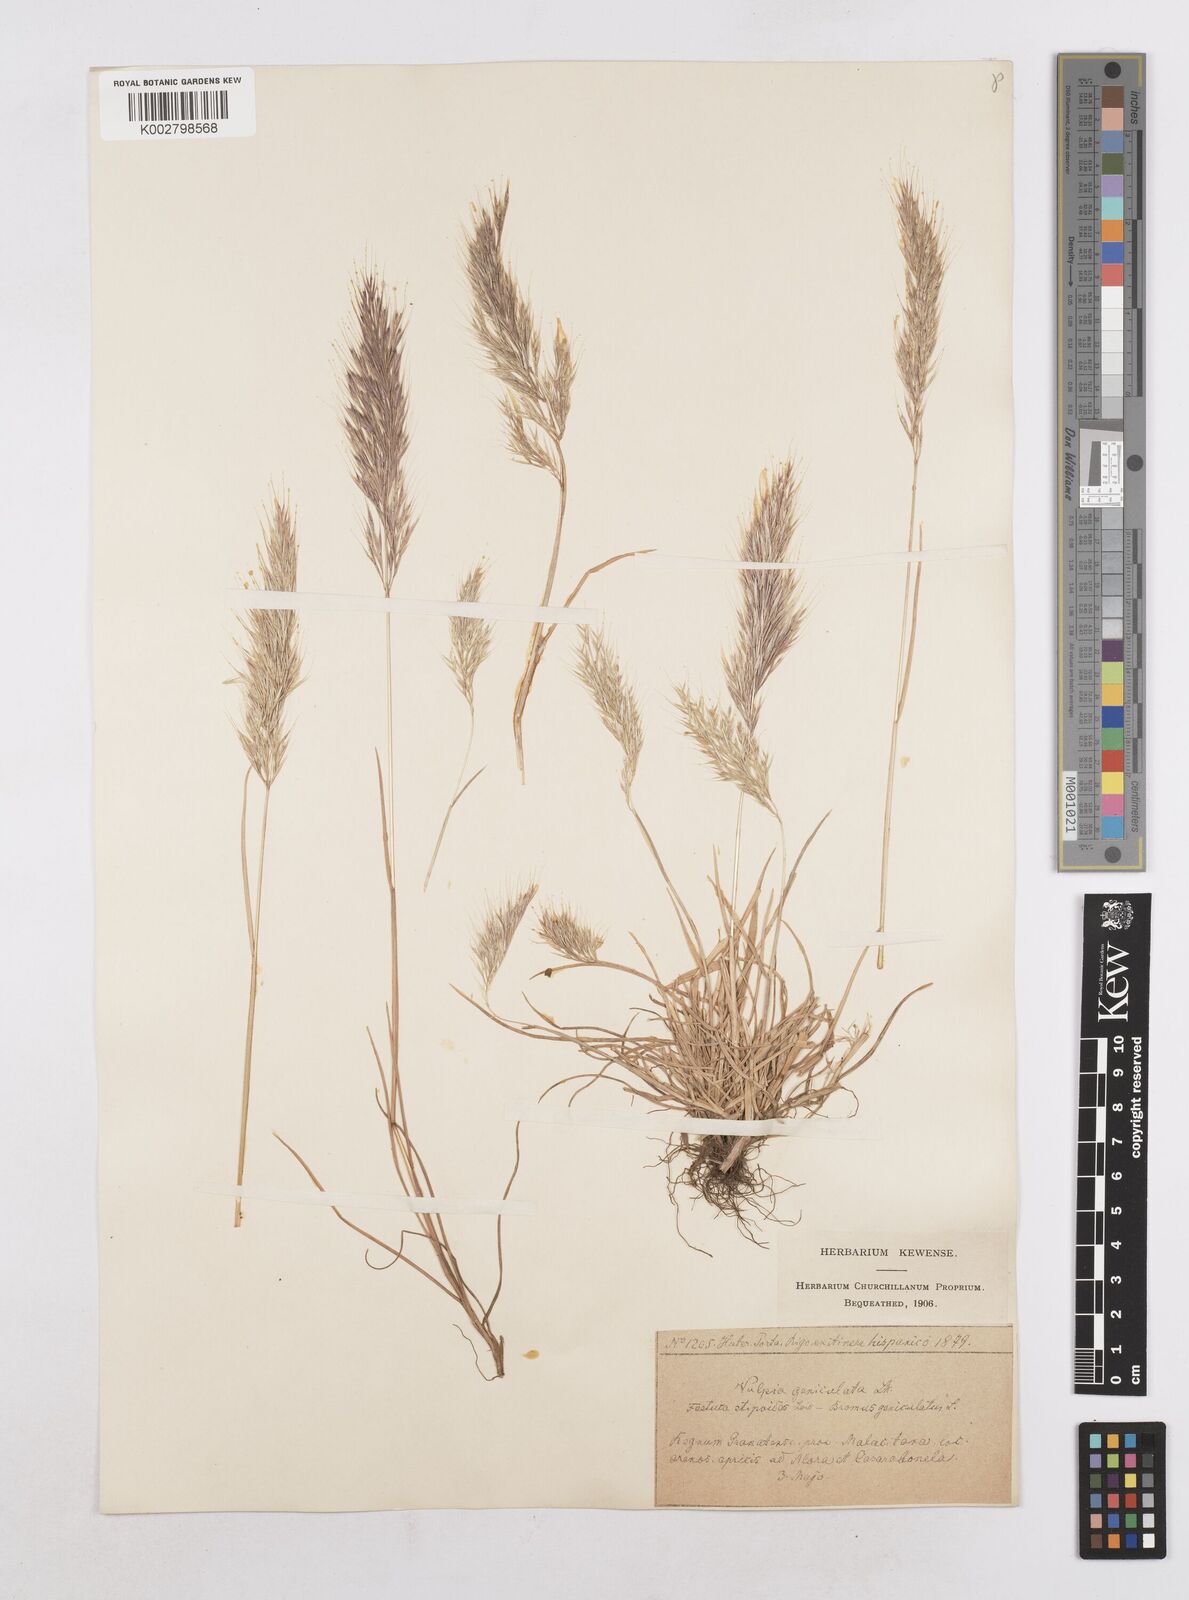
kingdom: Plantae
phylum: Tracheophyta
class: Liliopsida
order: Poales
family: Poaceae
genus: Festuca
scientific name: Festuca geniculata
